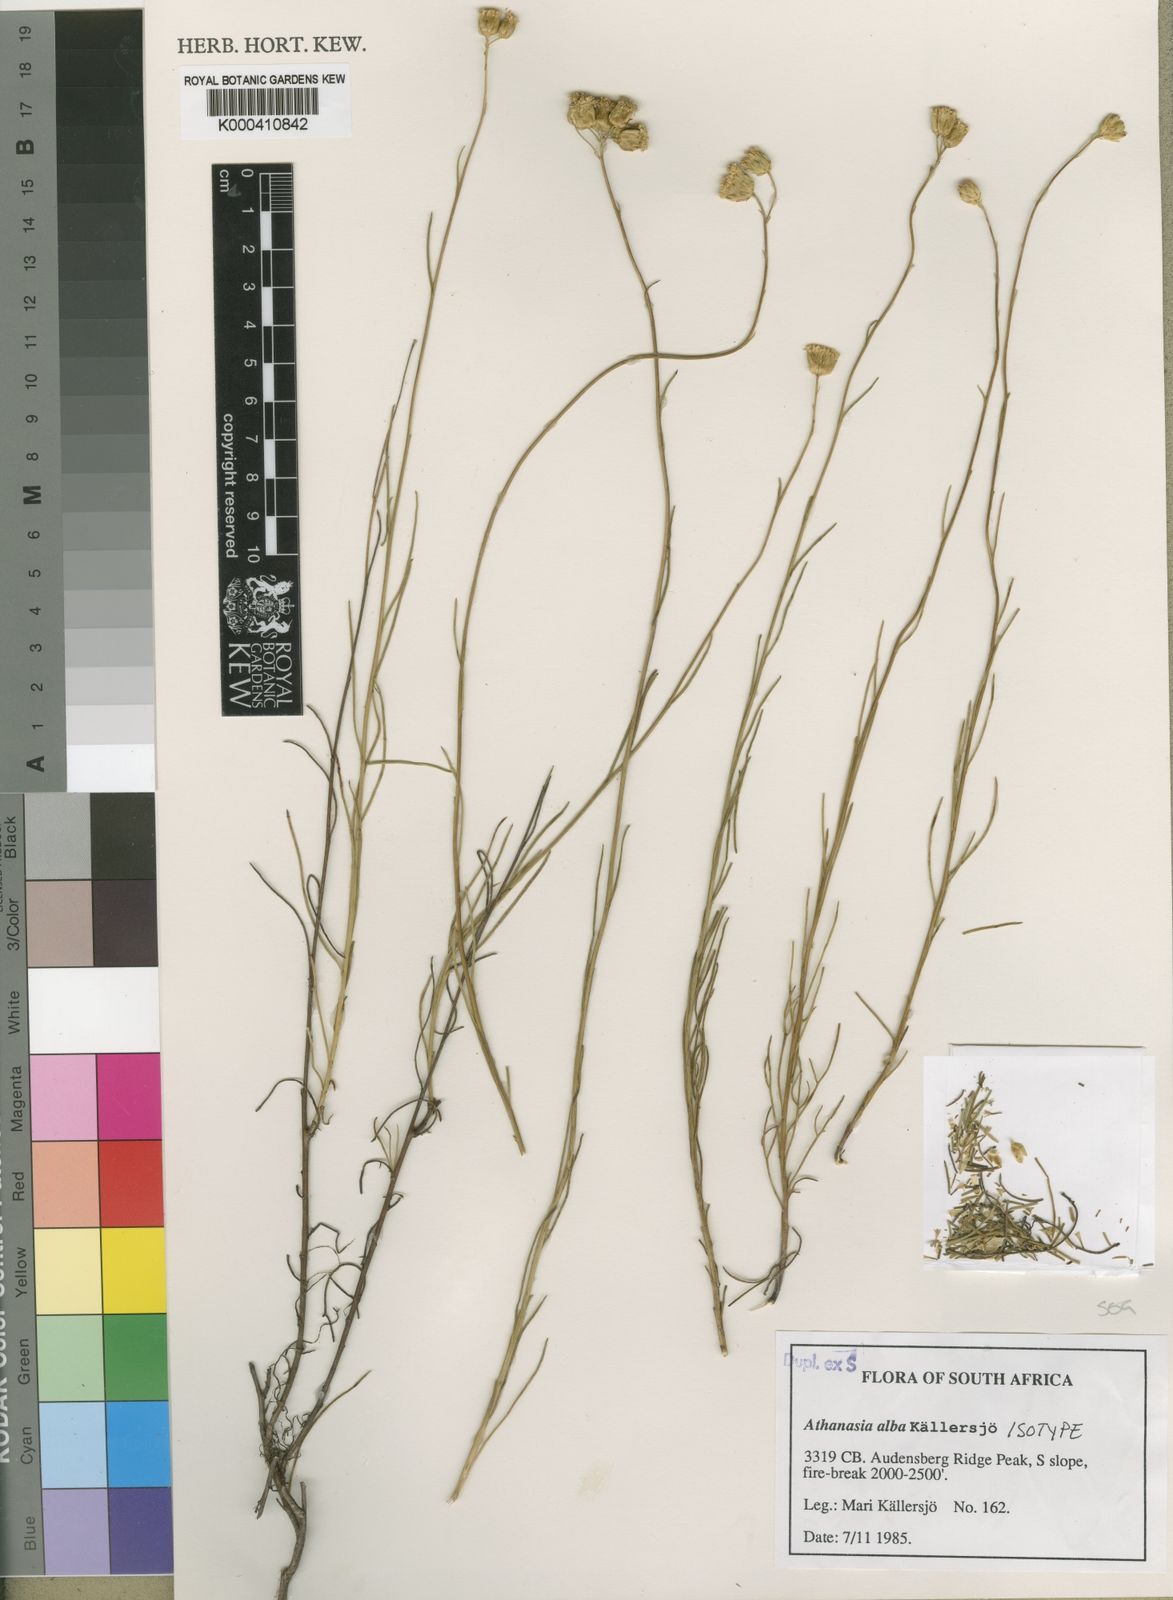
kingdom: Plantae
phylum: Tracheophyta
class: Magnoliopsida
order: Asterales
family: Asteraceae
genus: Athanasia
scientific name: Athanasia
